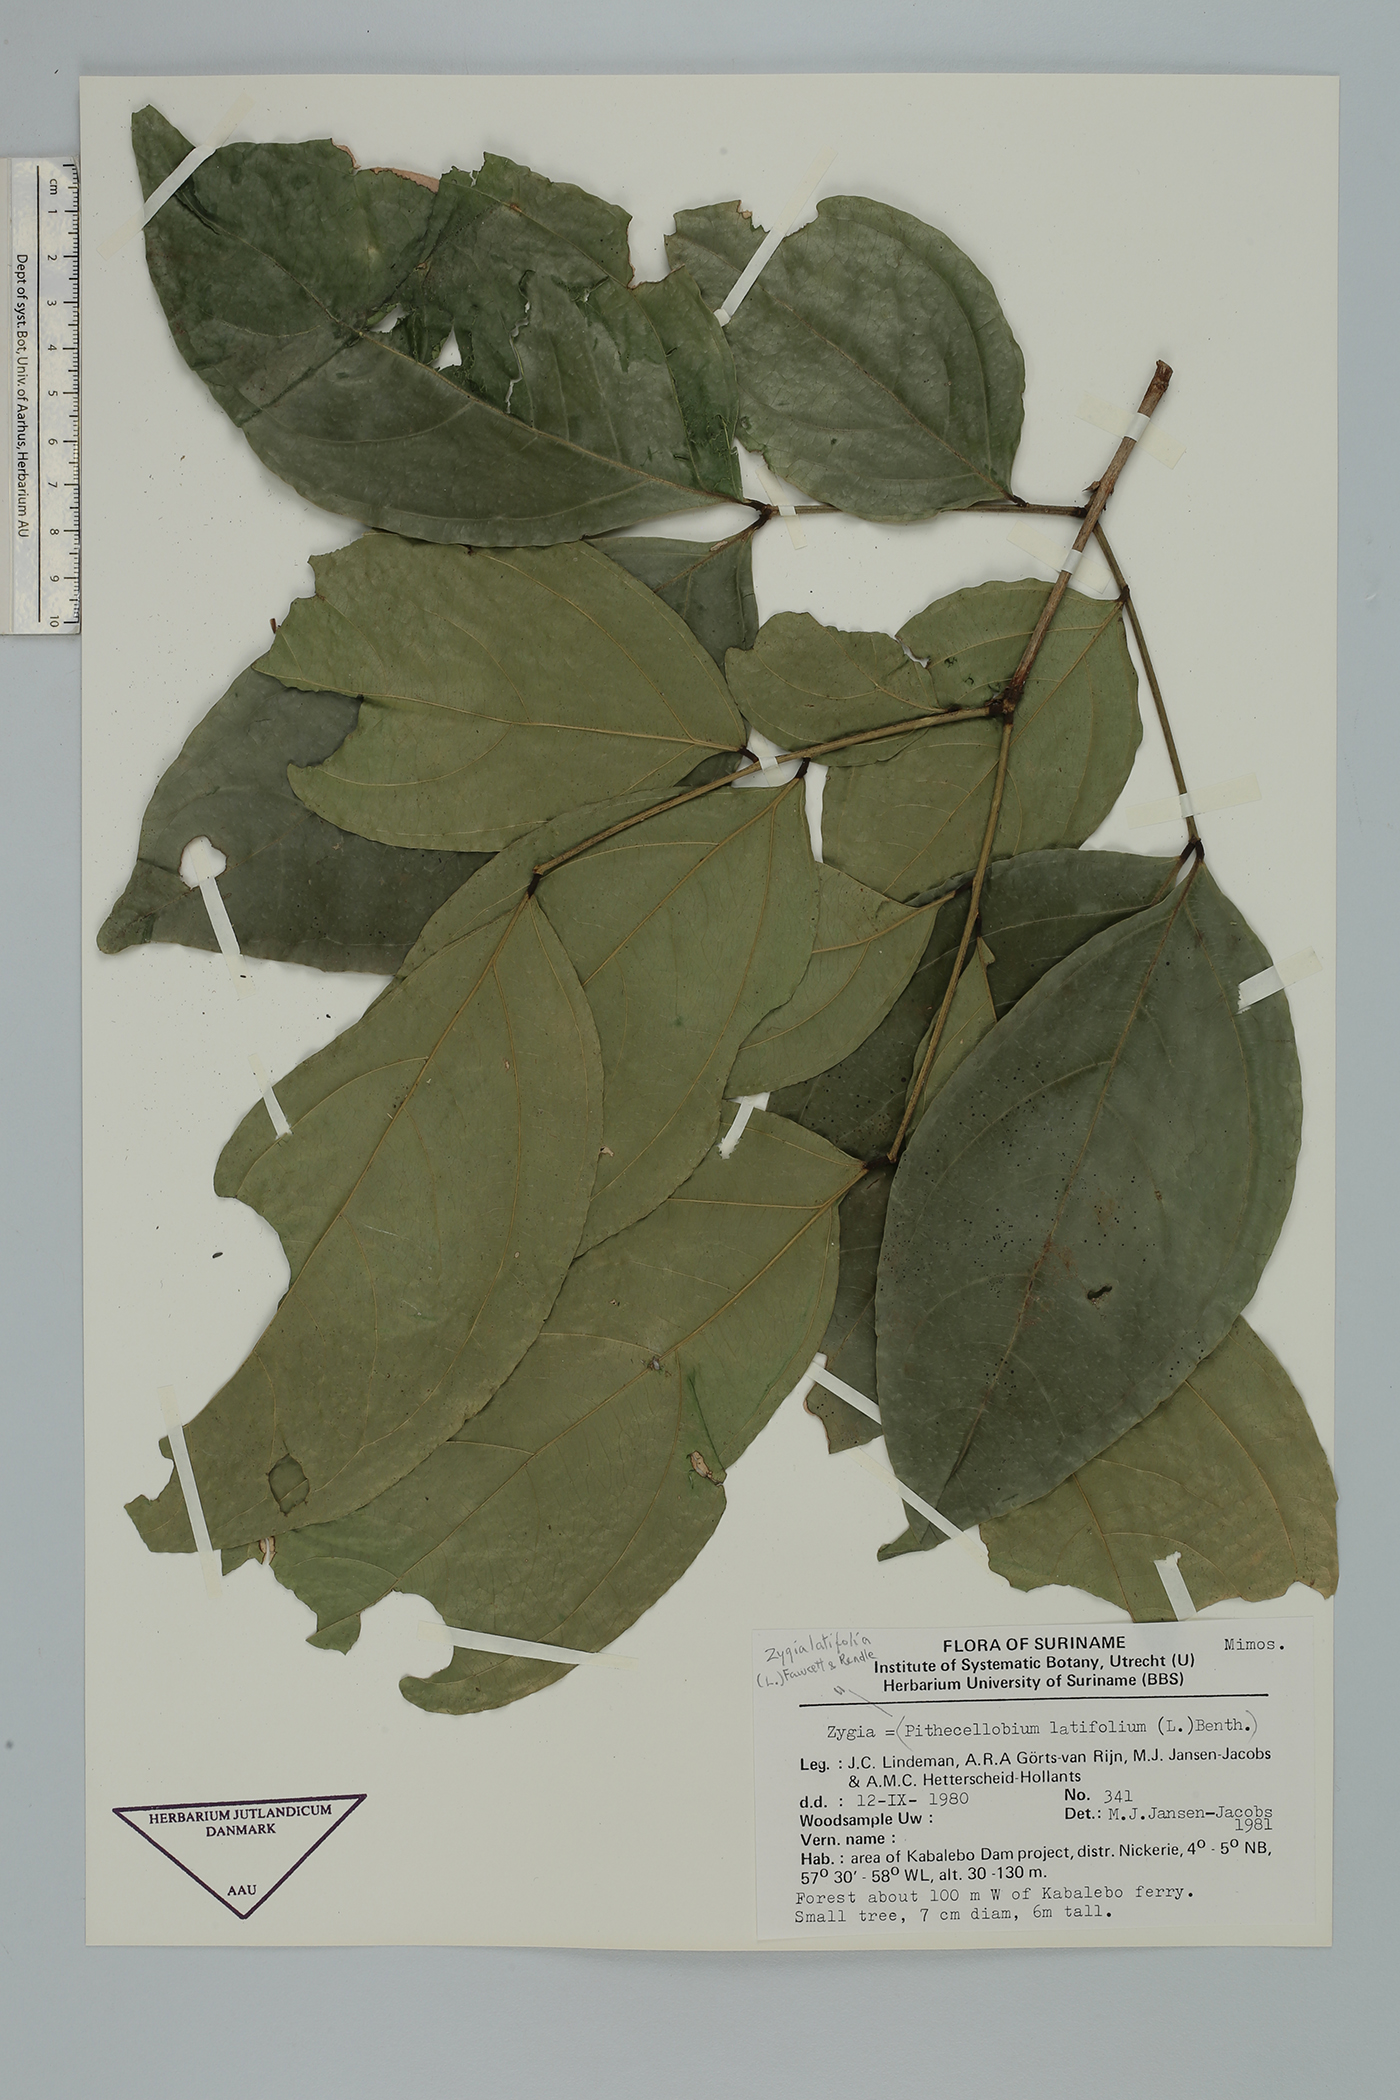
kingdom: Plantae
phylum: Tracheophyta
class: Magnoliopsida
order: Fabales
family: Fabaceae
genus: Zygia
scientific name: Zygia latifolia
